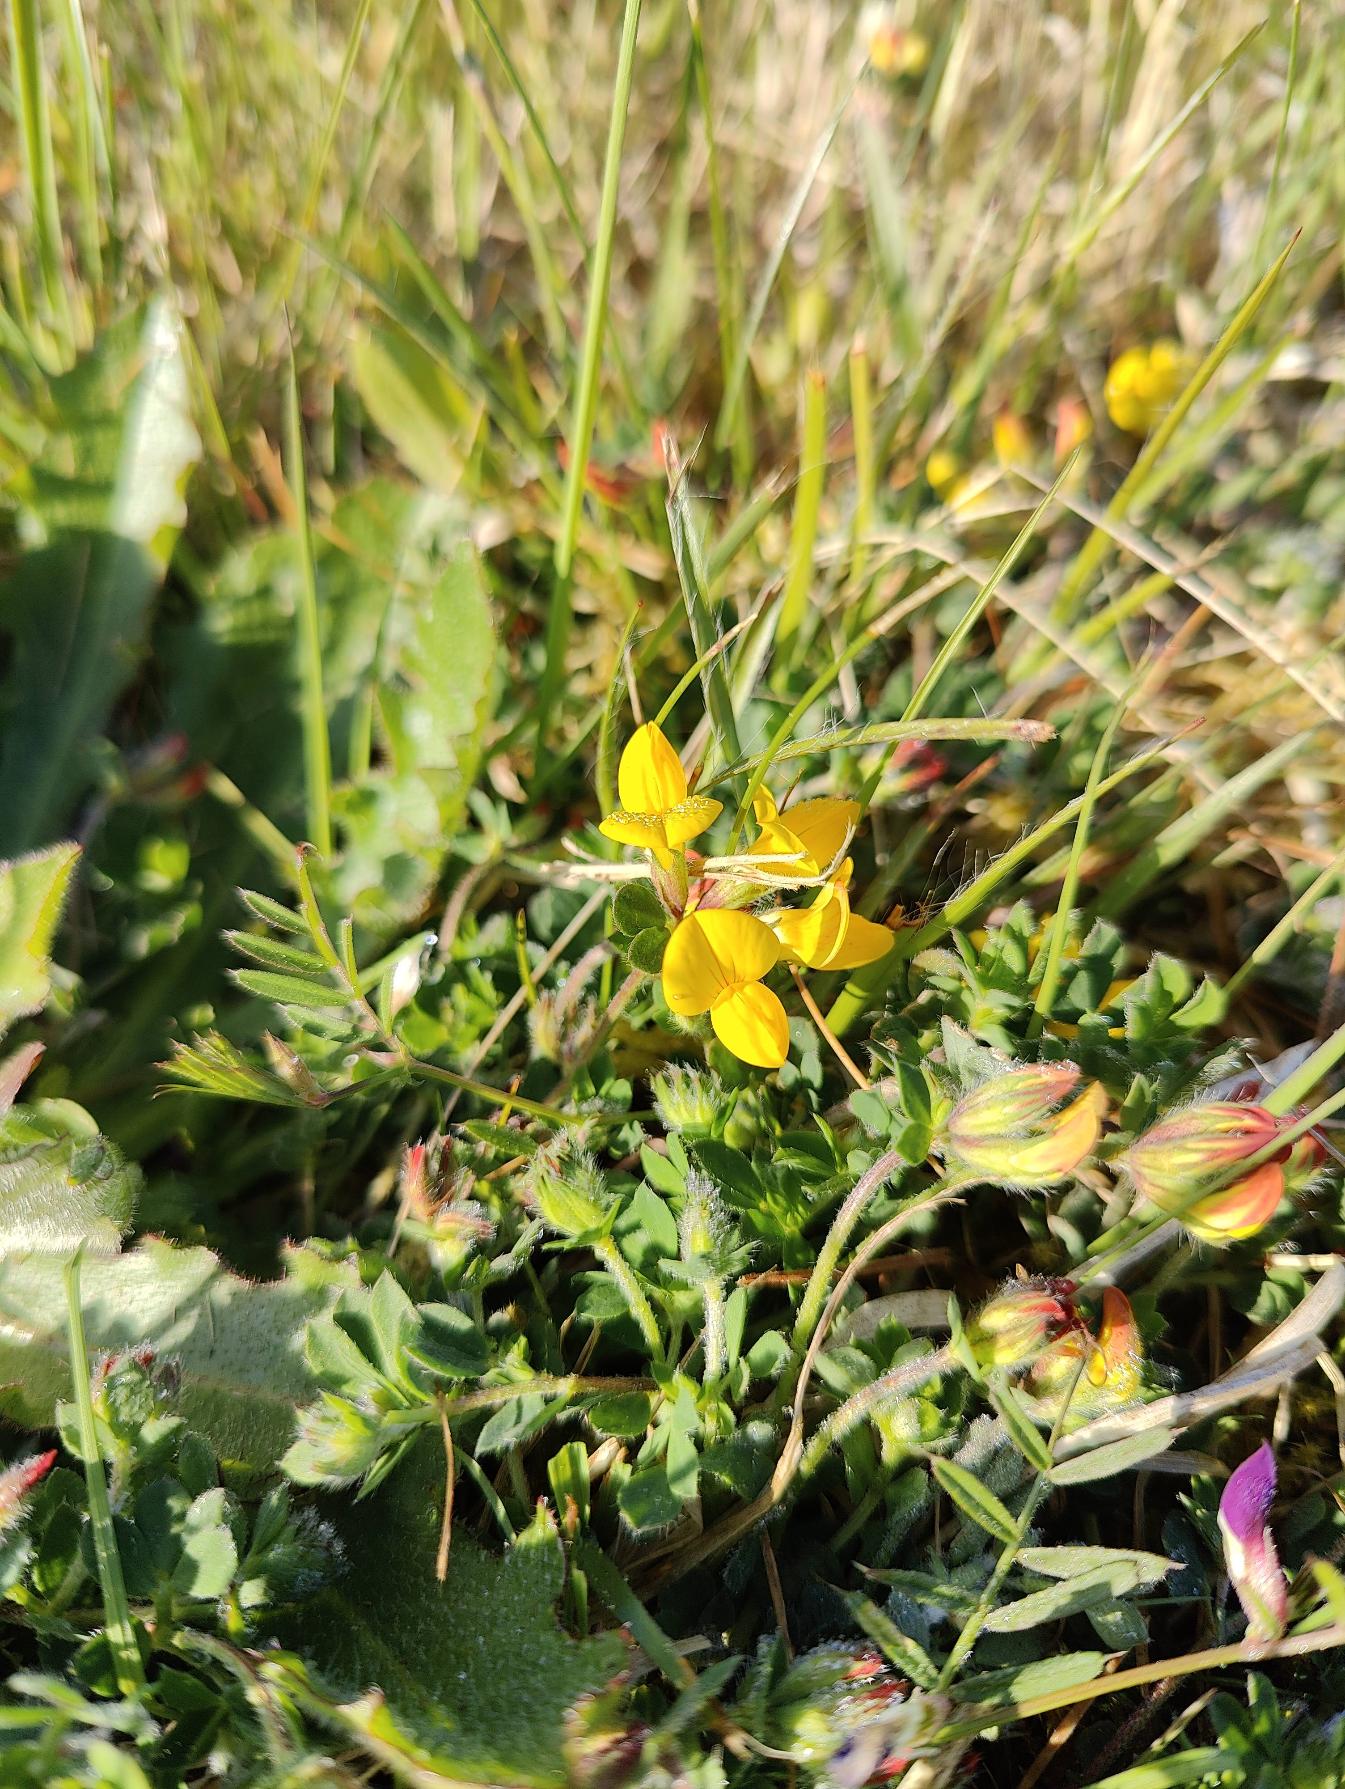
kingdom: Plantae
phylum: Tracheophyta
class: Magnoliopsida
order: Fabales
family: Fabaceae
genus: Lotus
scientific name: Lotus corniculatus
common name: Almindelig kællingetand
